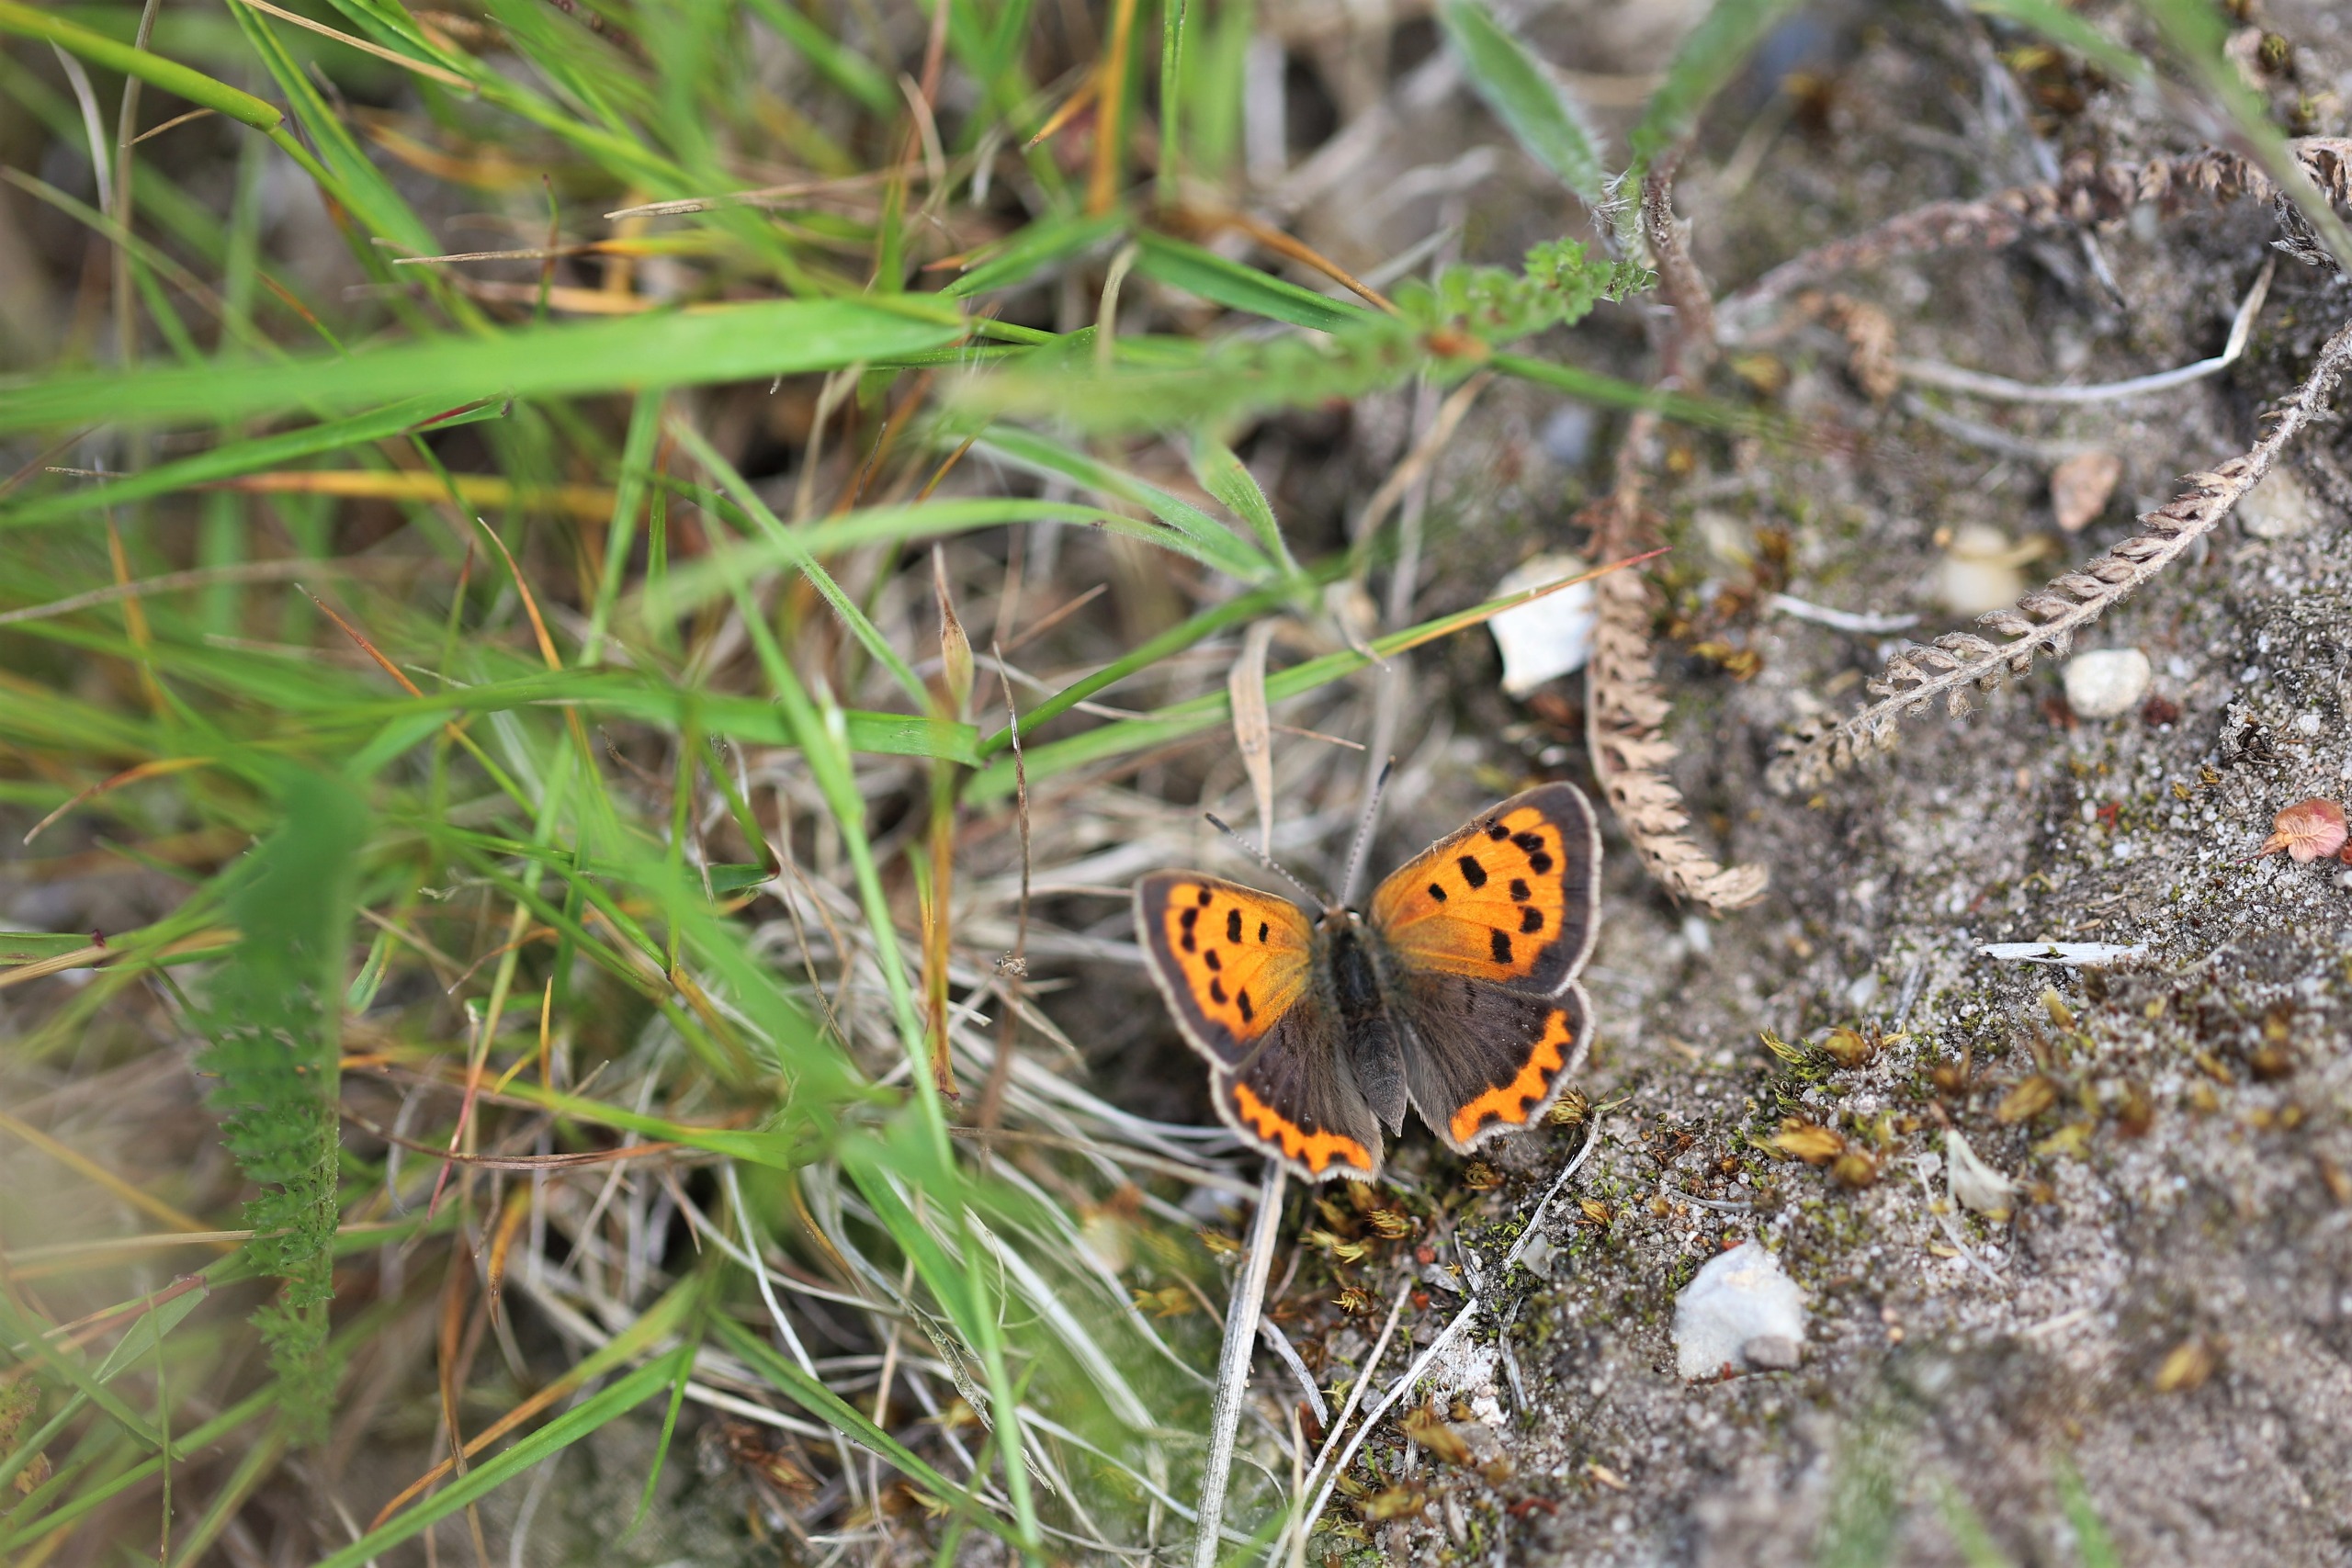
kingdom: Animalia
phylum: Arthropoda
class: Insecta
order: Lepidoptera
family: Lycaenidae
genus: Lycaena
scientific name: Lycaena phlaeas
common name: Lille ildfugl
